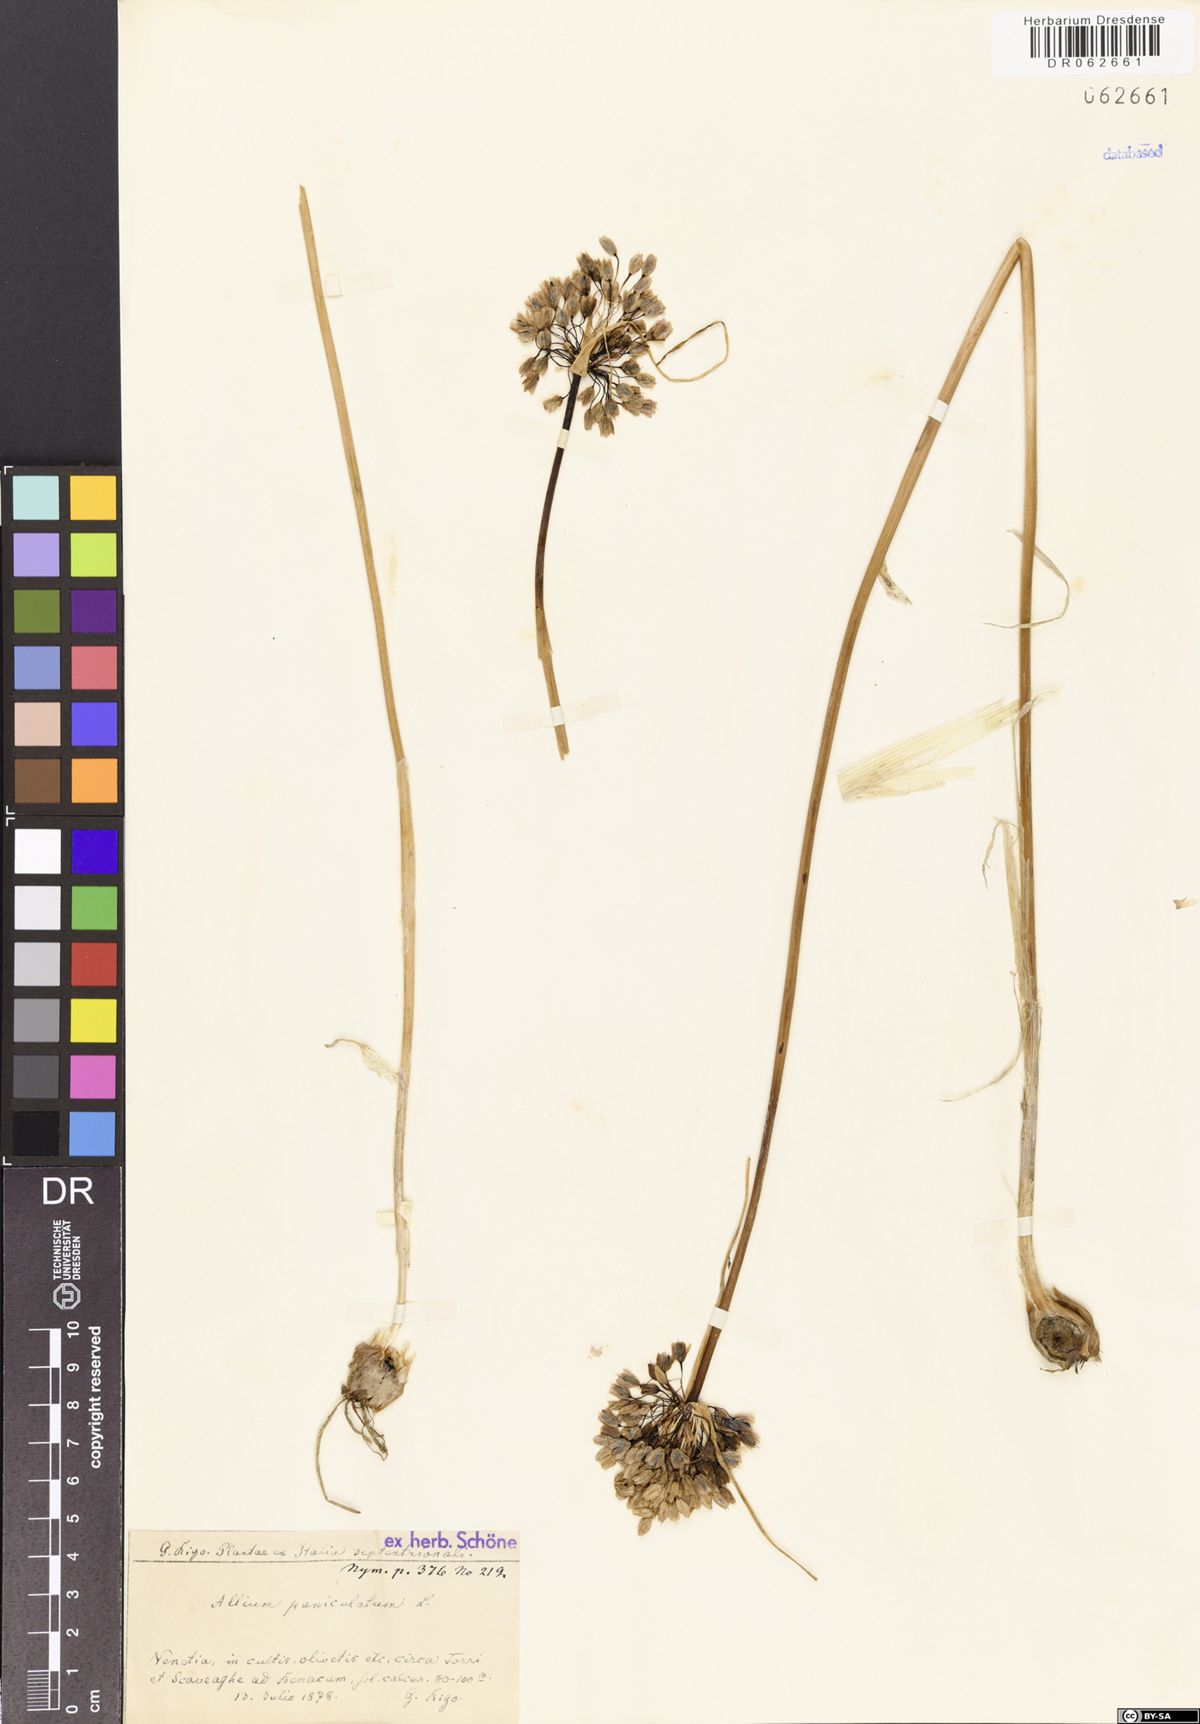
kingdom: Plantae
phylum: Tracheophyta
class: Liliopsida
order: Asparagales
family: Amaryllidaceae
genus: Allium
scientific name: Allium paniculatum
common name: Pale garlic
